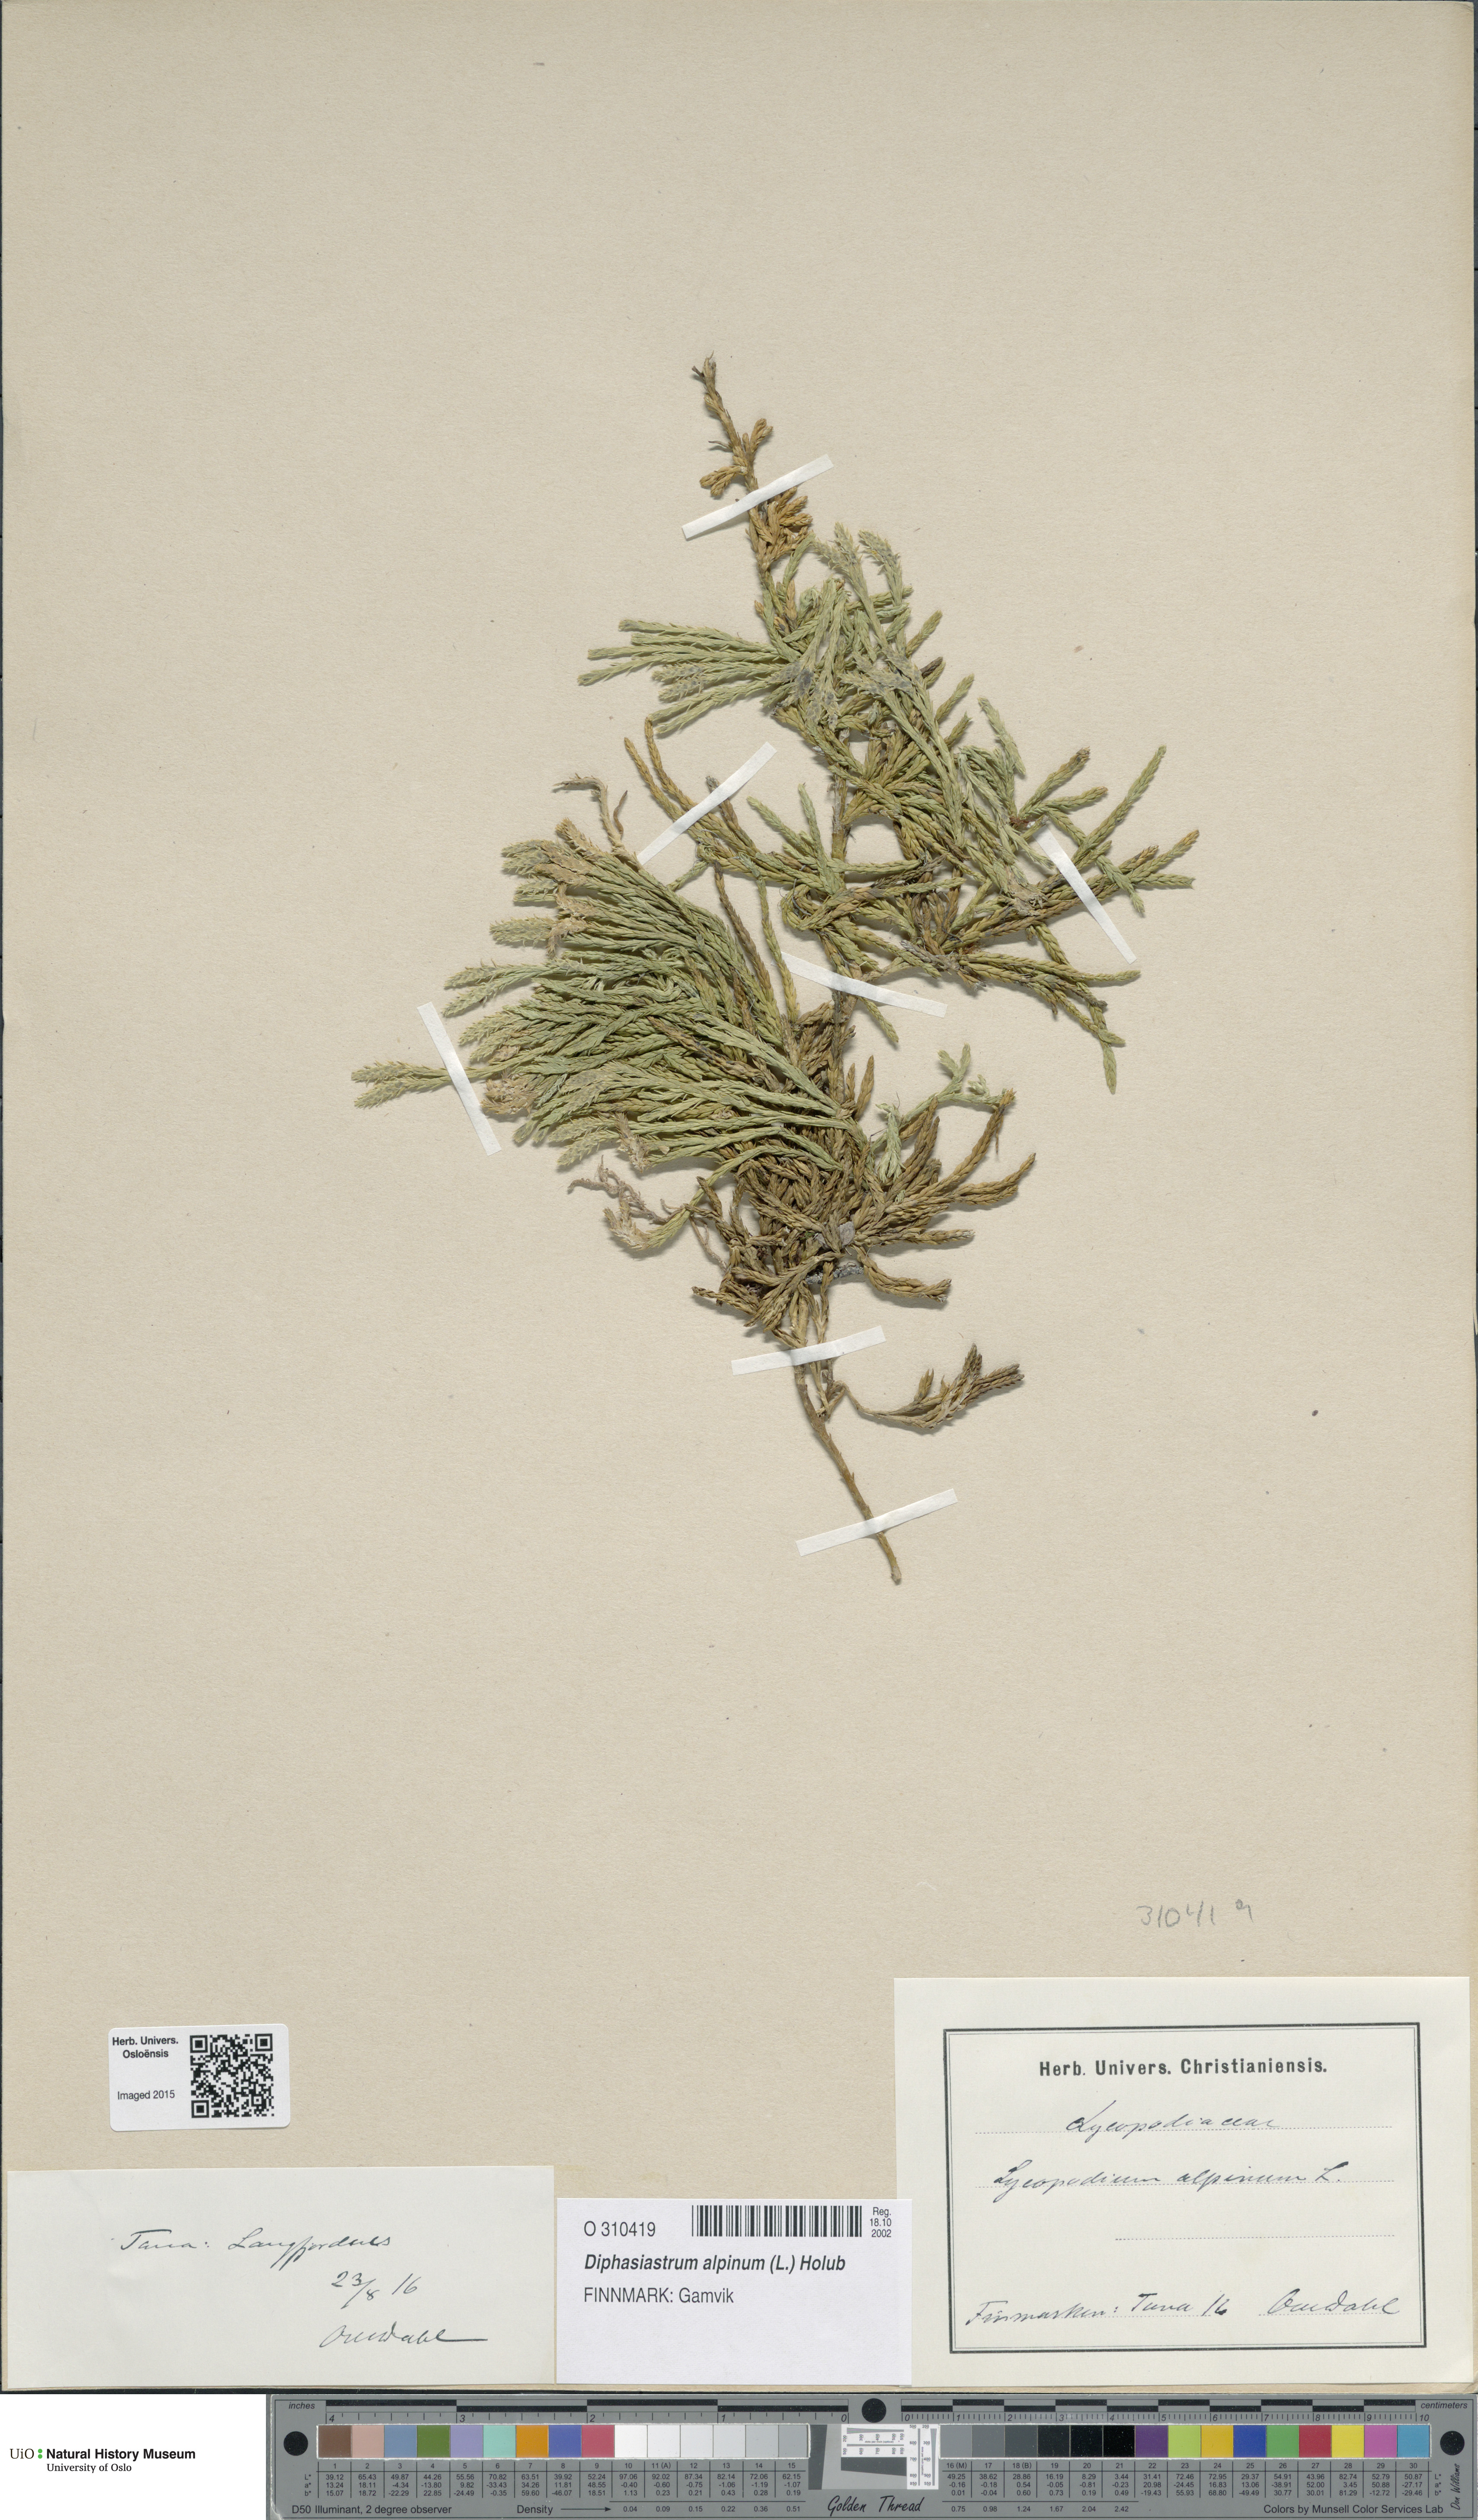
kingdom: Plantae
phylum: Tracheophyta
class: Lycopodiopsida
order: Lycopodiales
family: Lycopodiaceae
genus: Diphasiastrum
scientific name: Diphasiastrum alpinum
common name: Alpine clubmoss
